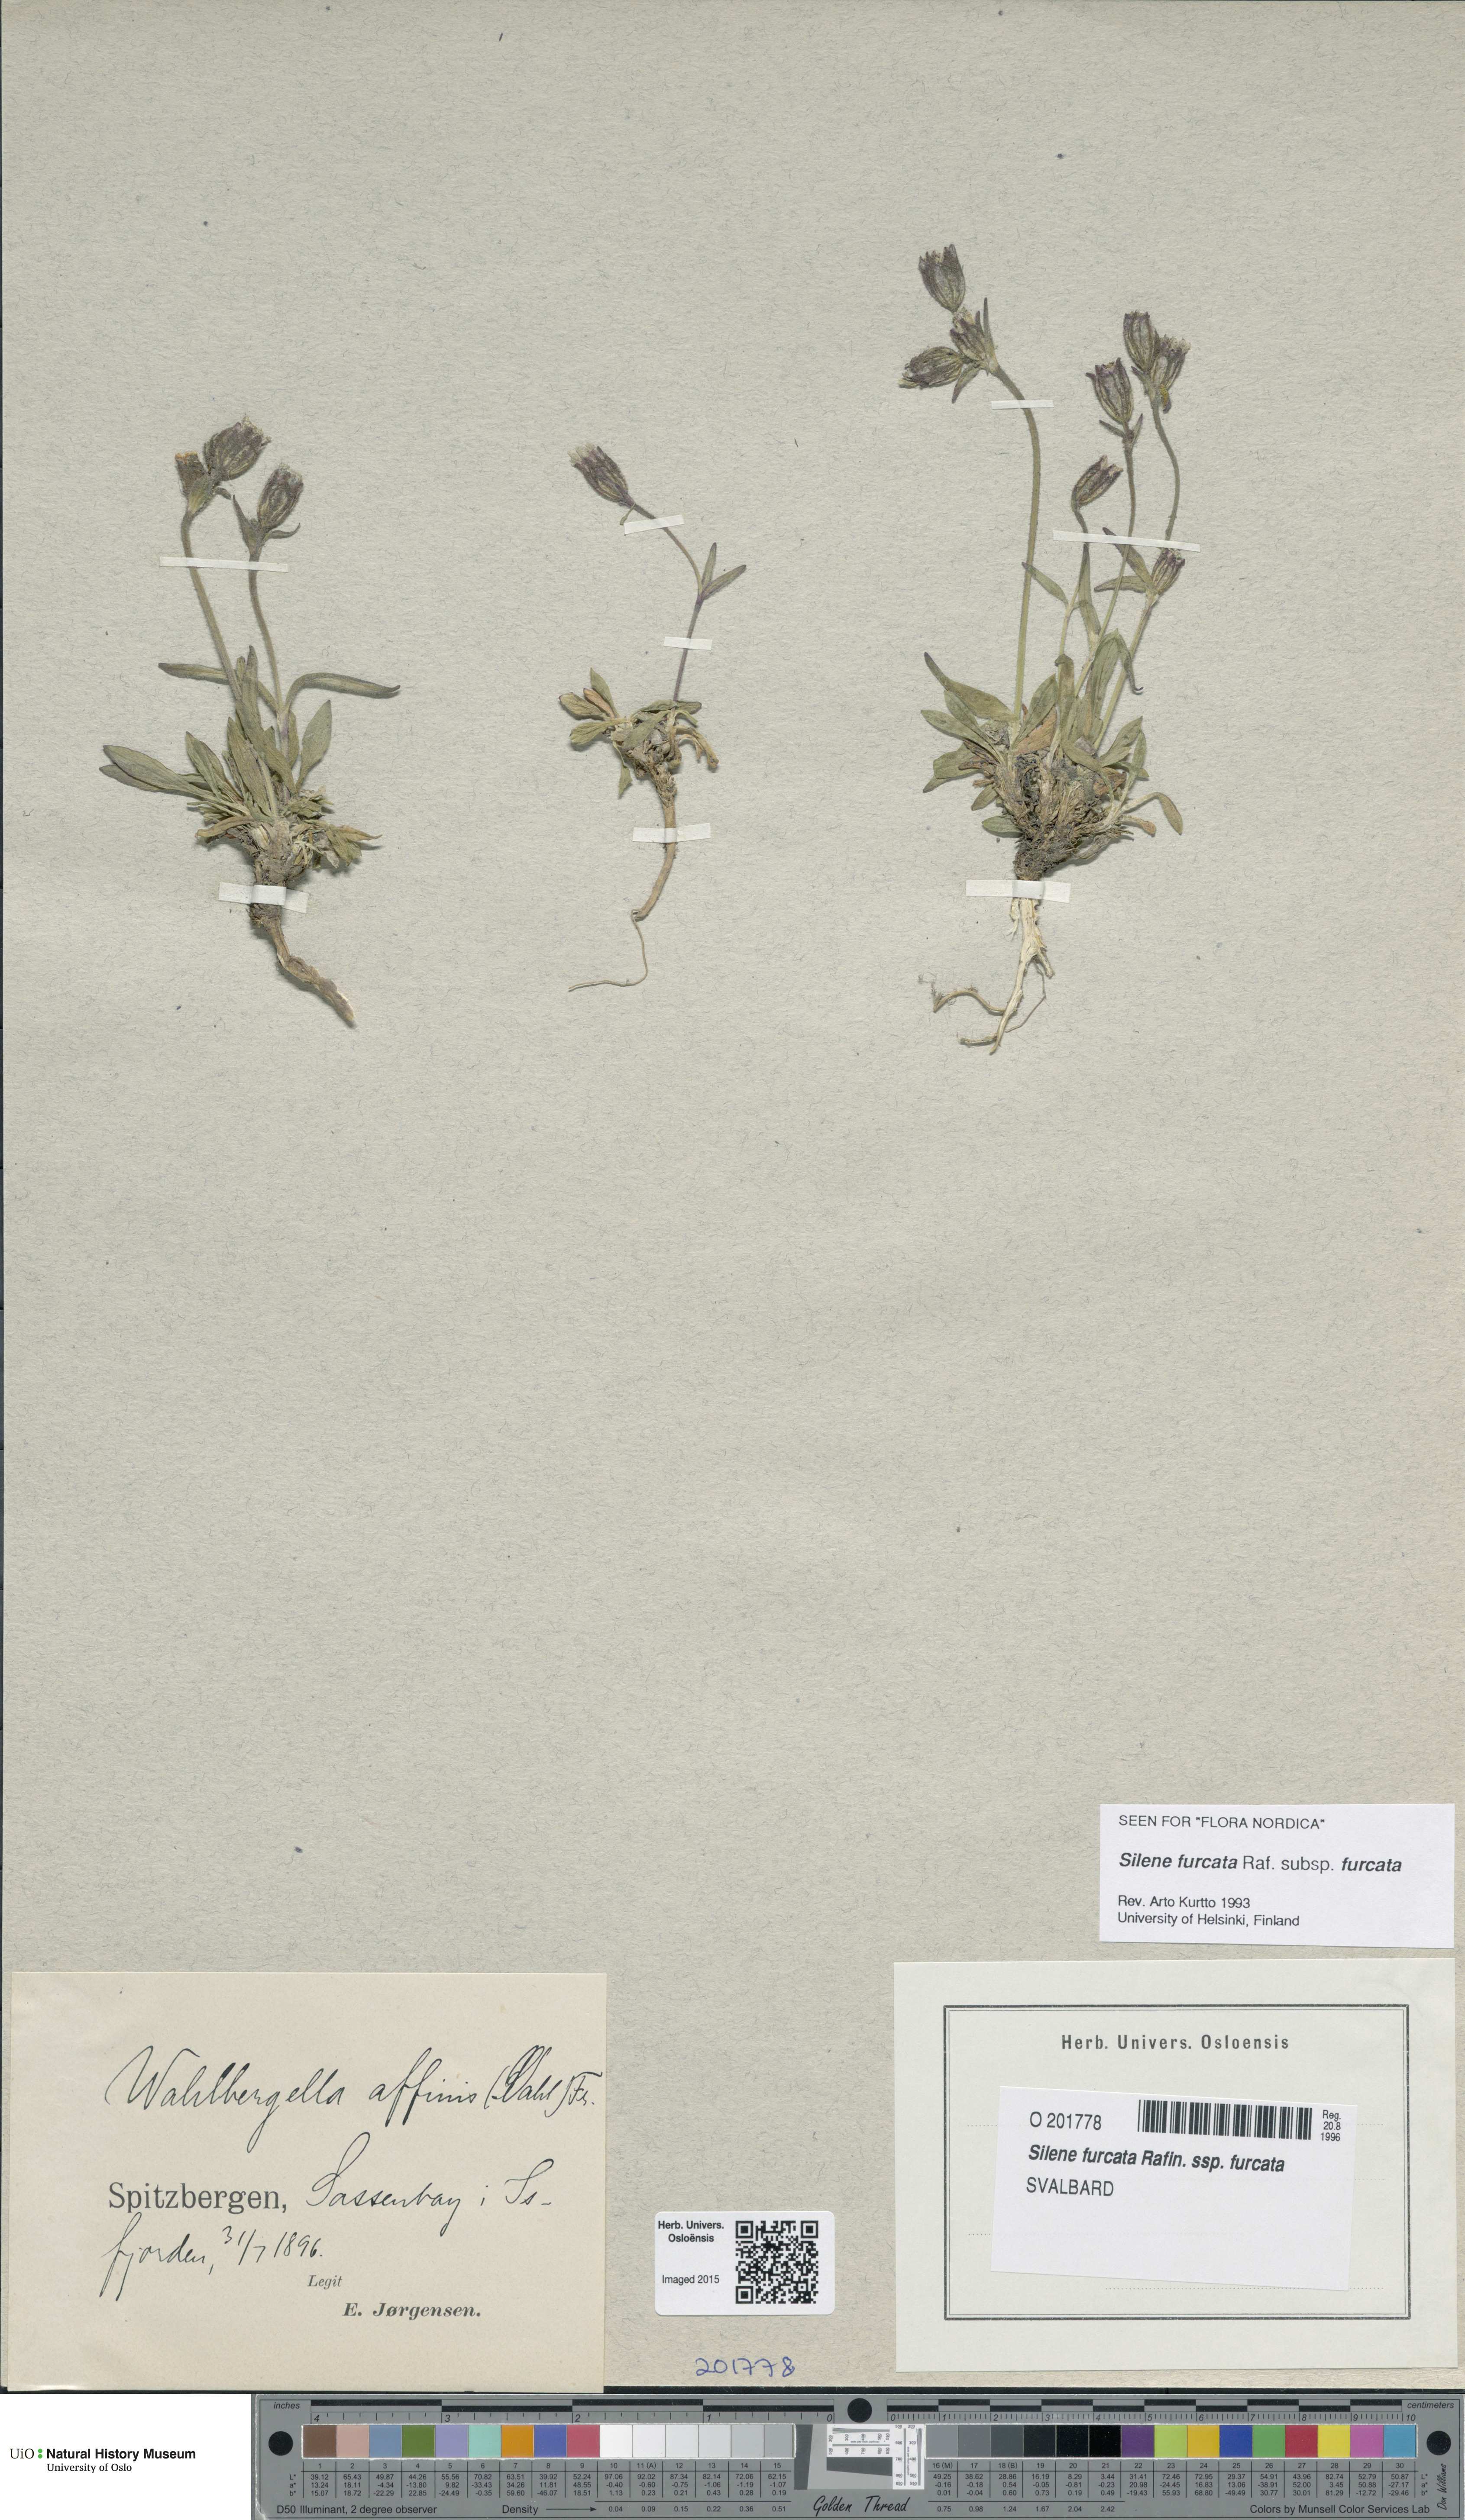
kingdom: Plantae
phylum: Tracheophyta
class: Magnoliopsida
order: Caryophyllales
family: Caryophyllaceae
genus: Silene
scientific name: Silene involucrata
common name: Greater arctic campion
